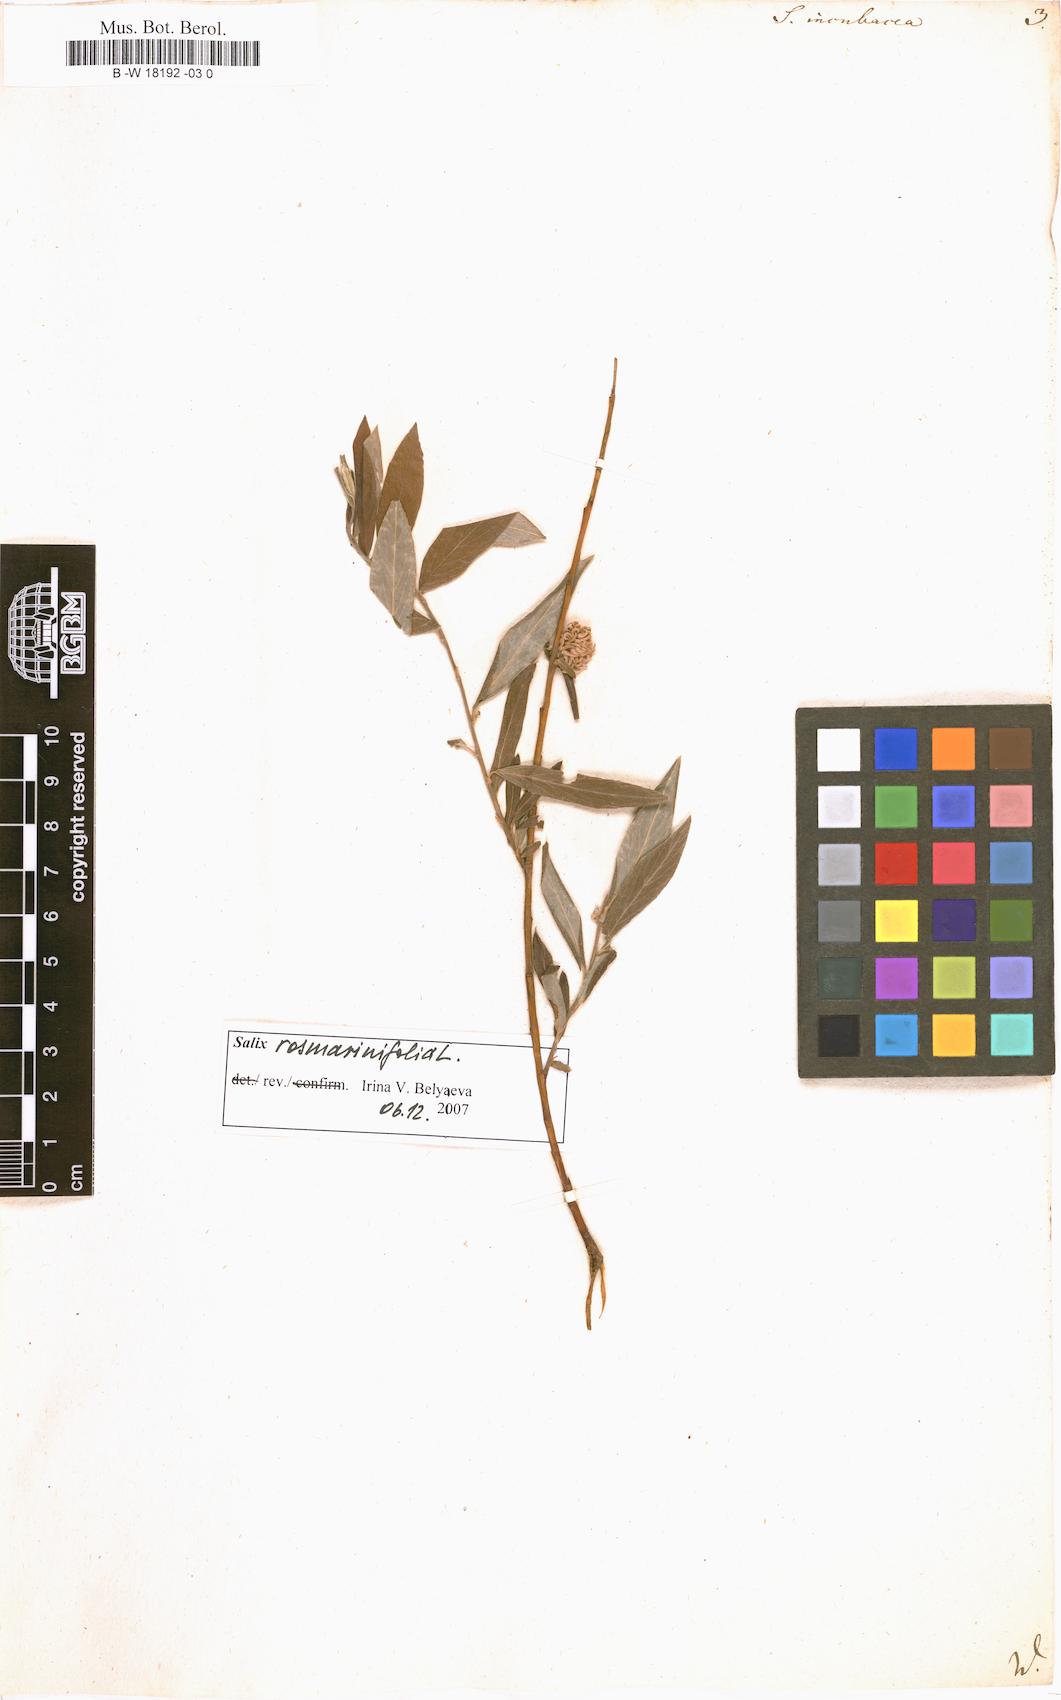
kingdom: Plantae
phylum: Tracheophyta
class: Magnoliopsida
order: Malpighiales
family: Salicaceae
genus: Salix
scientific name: Salix incubacea
